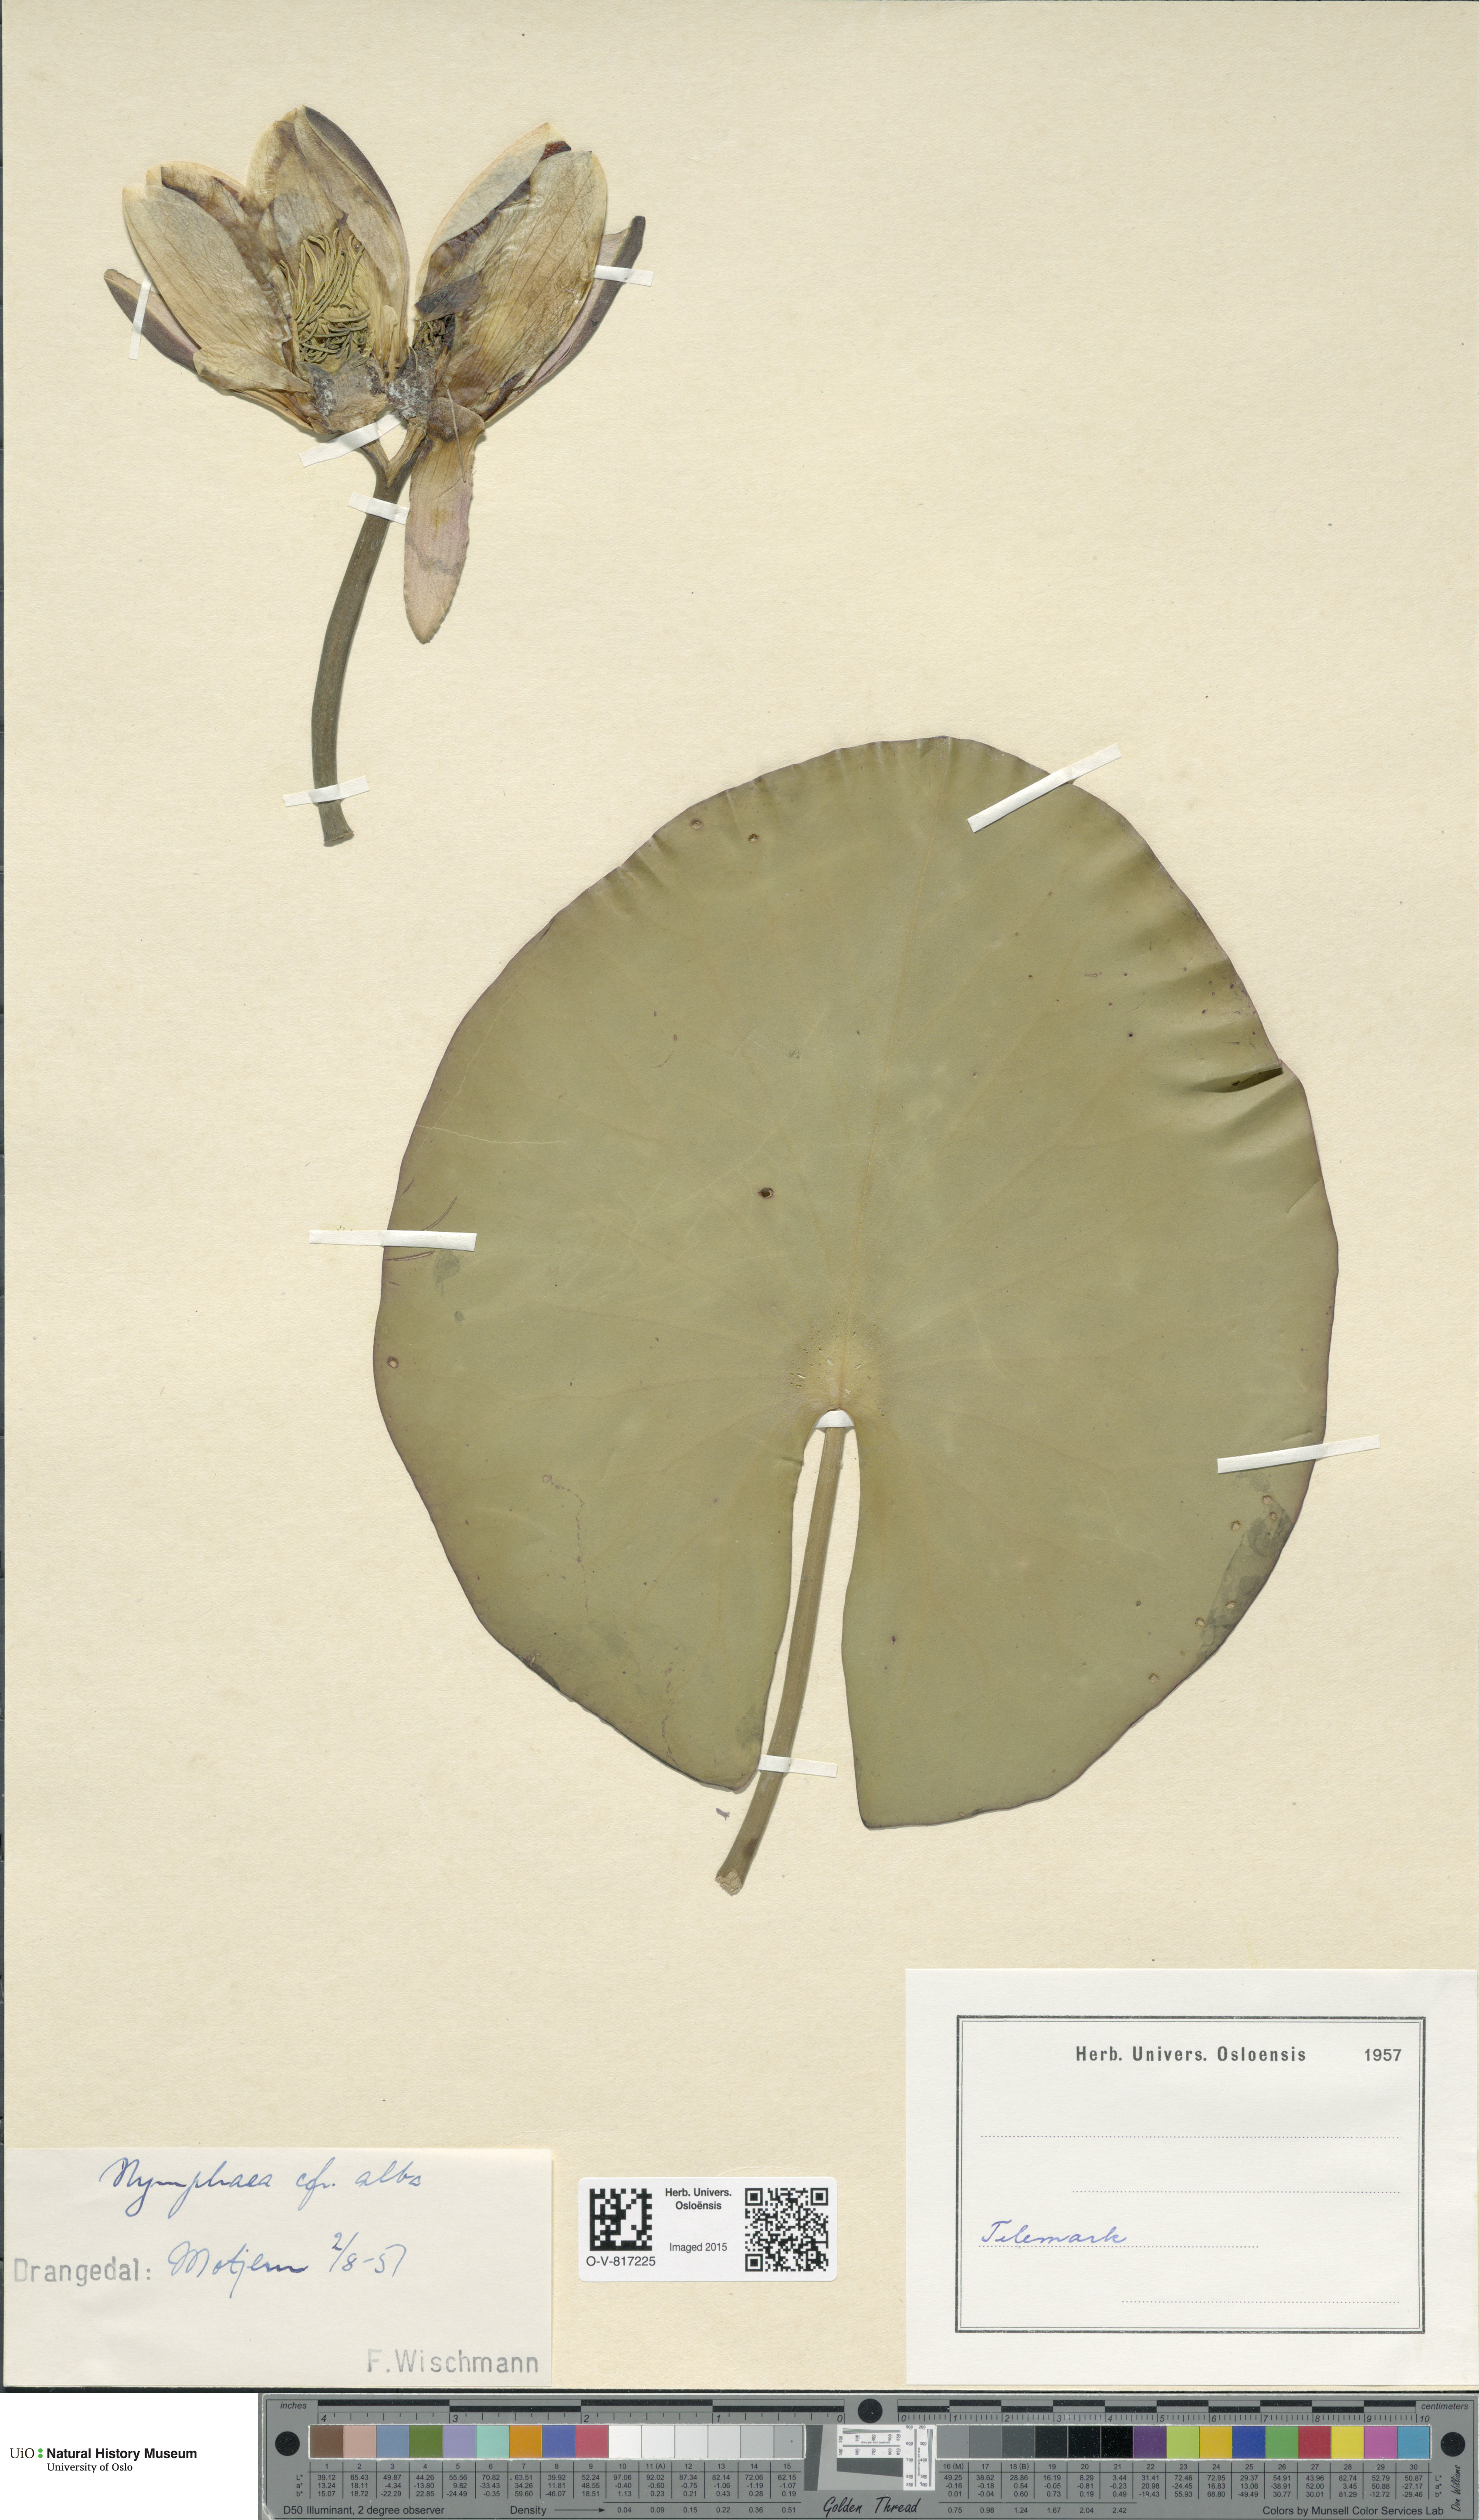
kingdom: Plantae
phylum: Tracheophyta
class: Magnoliopsida
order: Nymphaeales
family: Nymphaeaceae
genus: Nymphaea
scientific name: Nymphaea alba
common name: White water-lily
